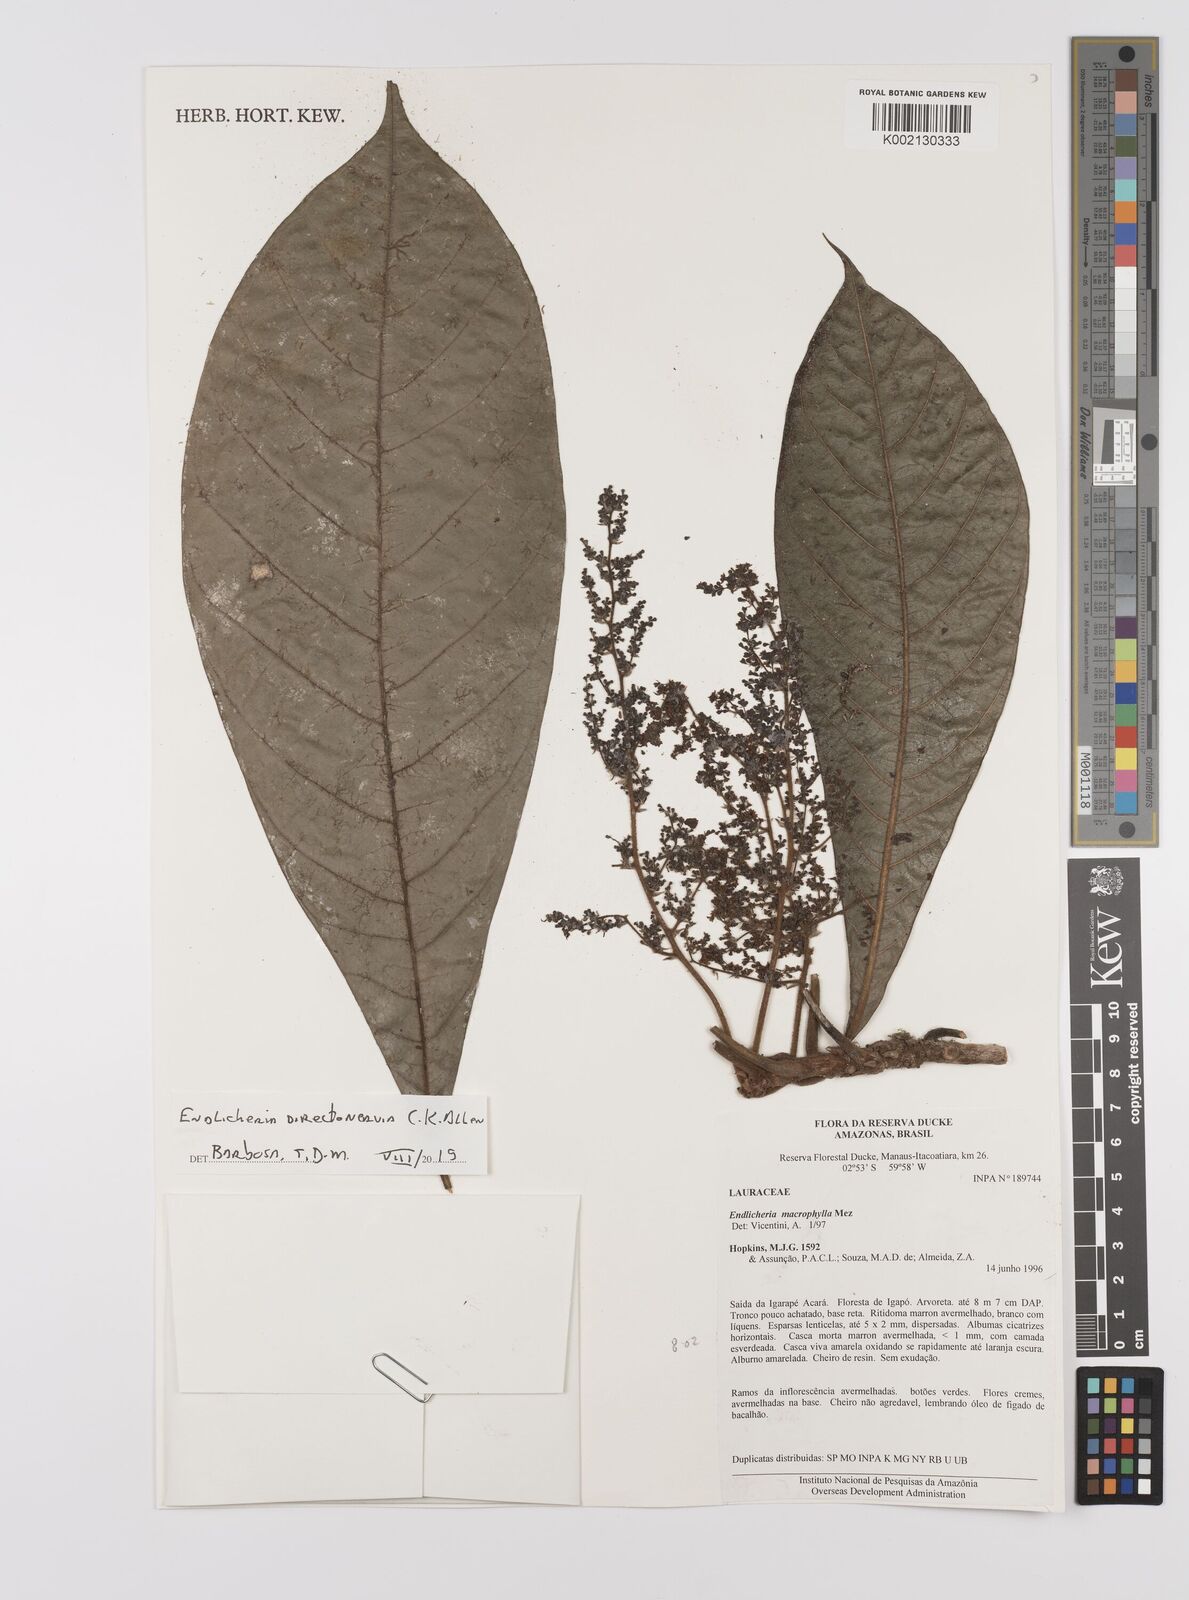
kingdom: Plantae
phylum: Tracheophyta
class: Magnoliopsida
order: Laurales
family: Lauraceae
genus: Endlicheria
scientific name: Endlicheria directonervia
